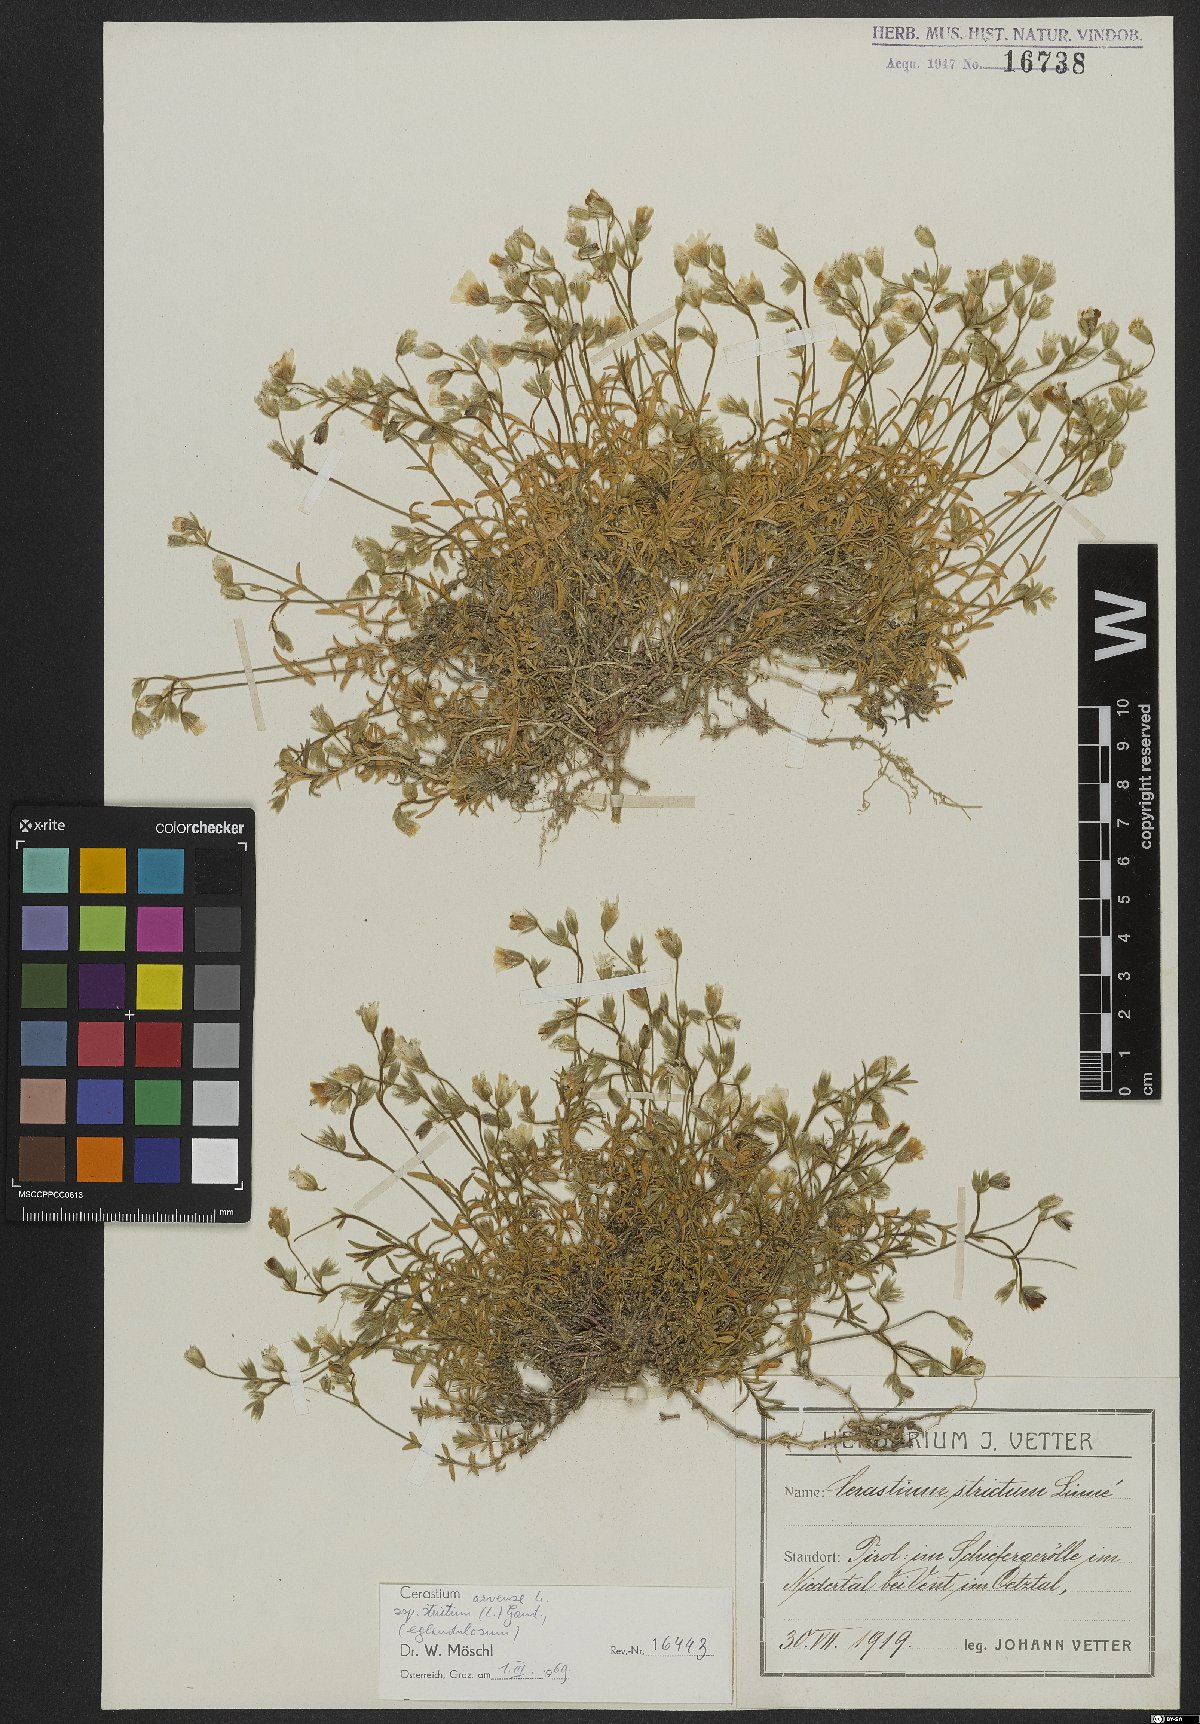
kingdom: Plantae
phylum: Tracheophyta
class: Magnoliopsida
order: Caryophyllales
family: Caryophyllaceae
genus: Cerastium
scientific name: Cerastium elongatum
